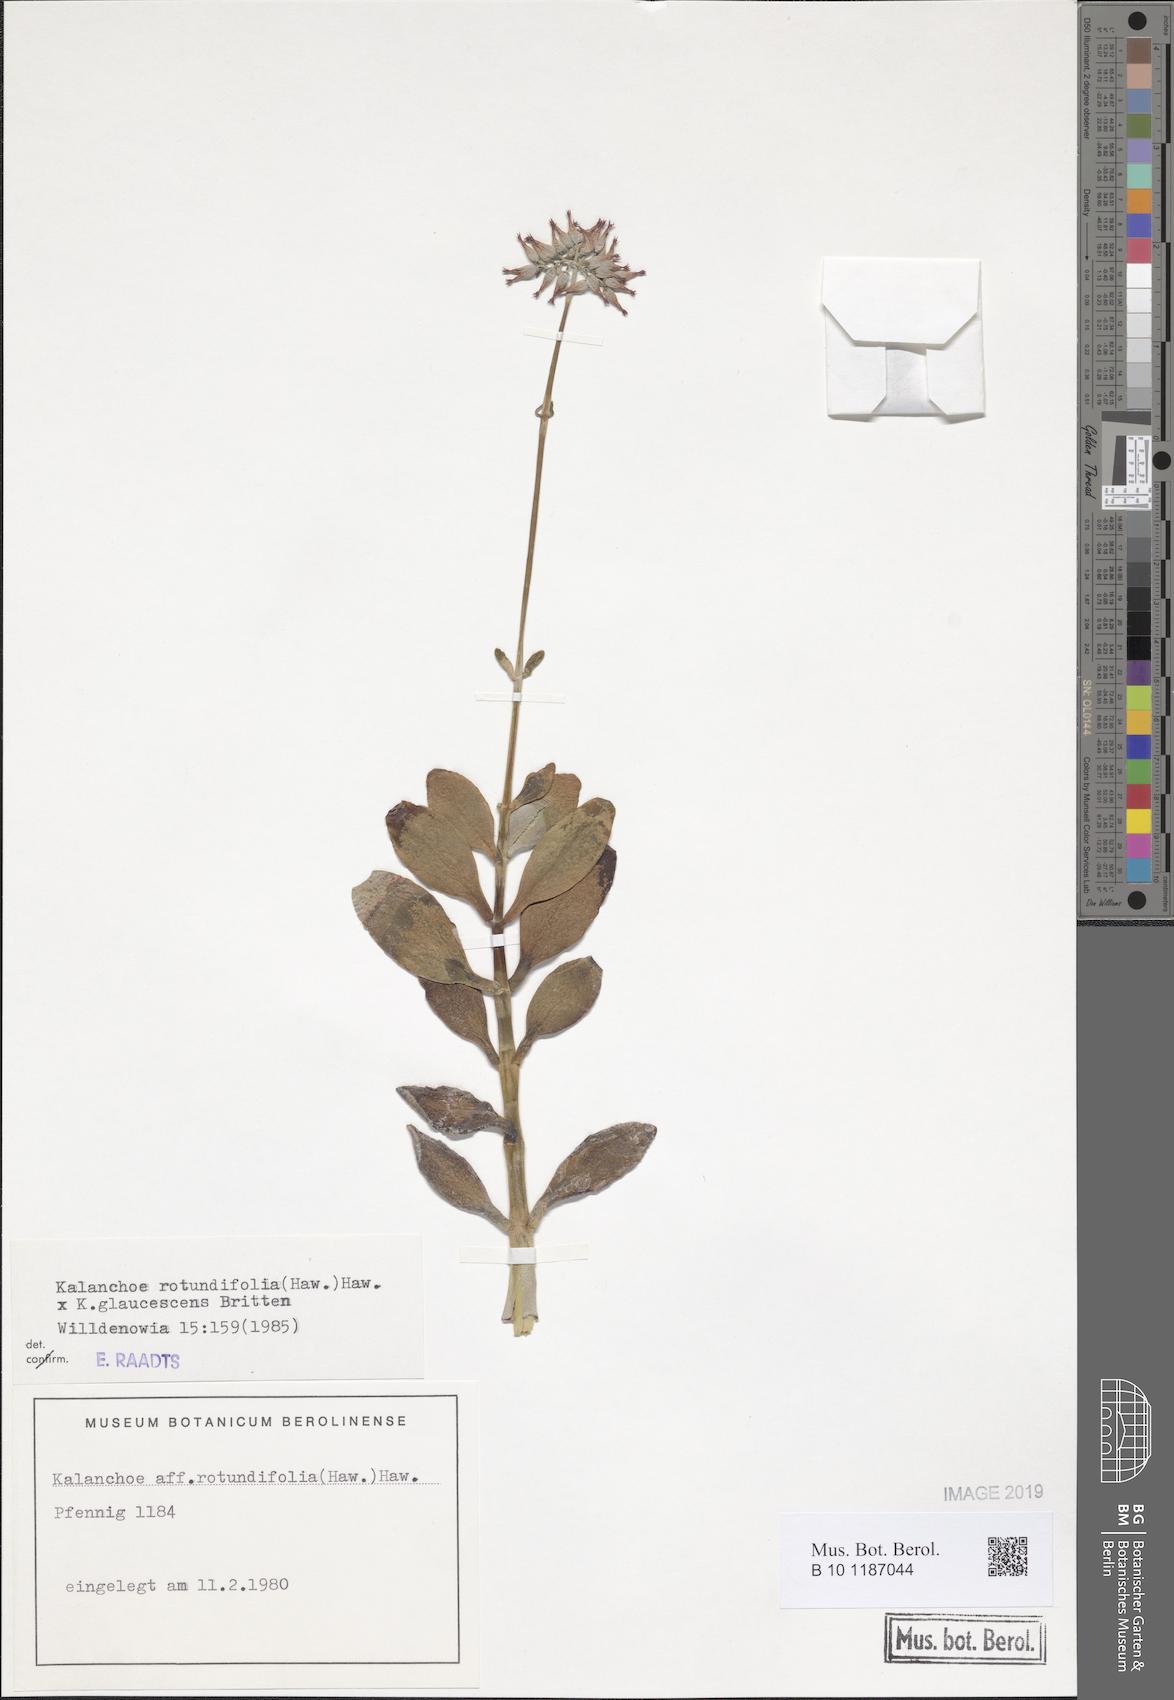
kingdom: Plantae
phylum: Tracheophyta
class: Magnoliopsida
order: Saxifragales
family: Crassulaceae
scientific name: Crassulaceae
